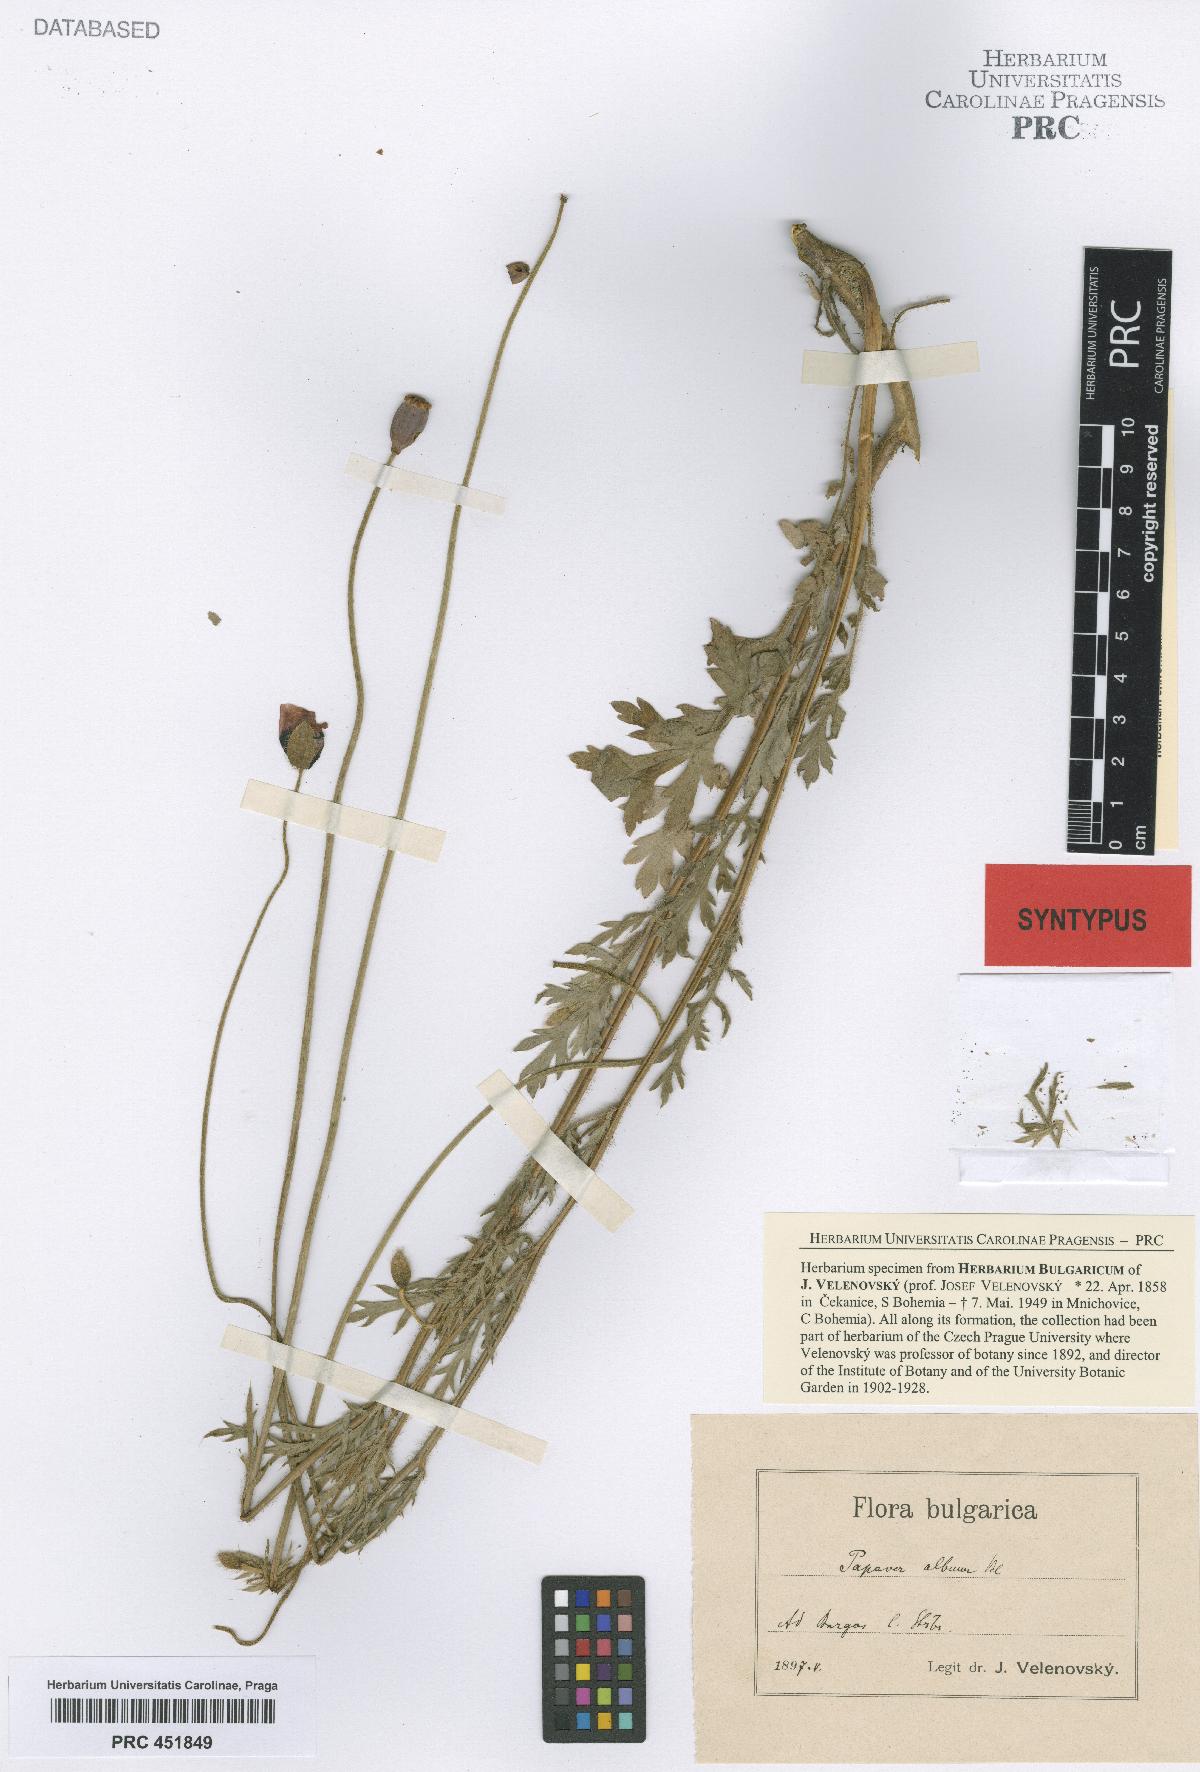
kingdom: Plantae
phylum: Tracheophyta
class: Magnoliopsida
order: Ranunculales
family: Papaveraceae
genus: Papaver
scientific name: Papaver dubium
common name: Long-headed poppy
